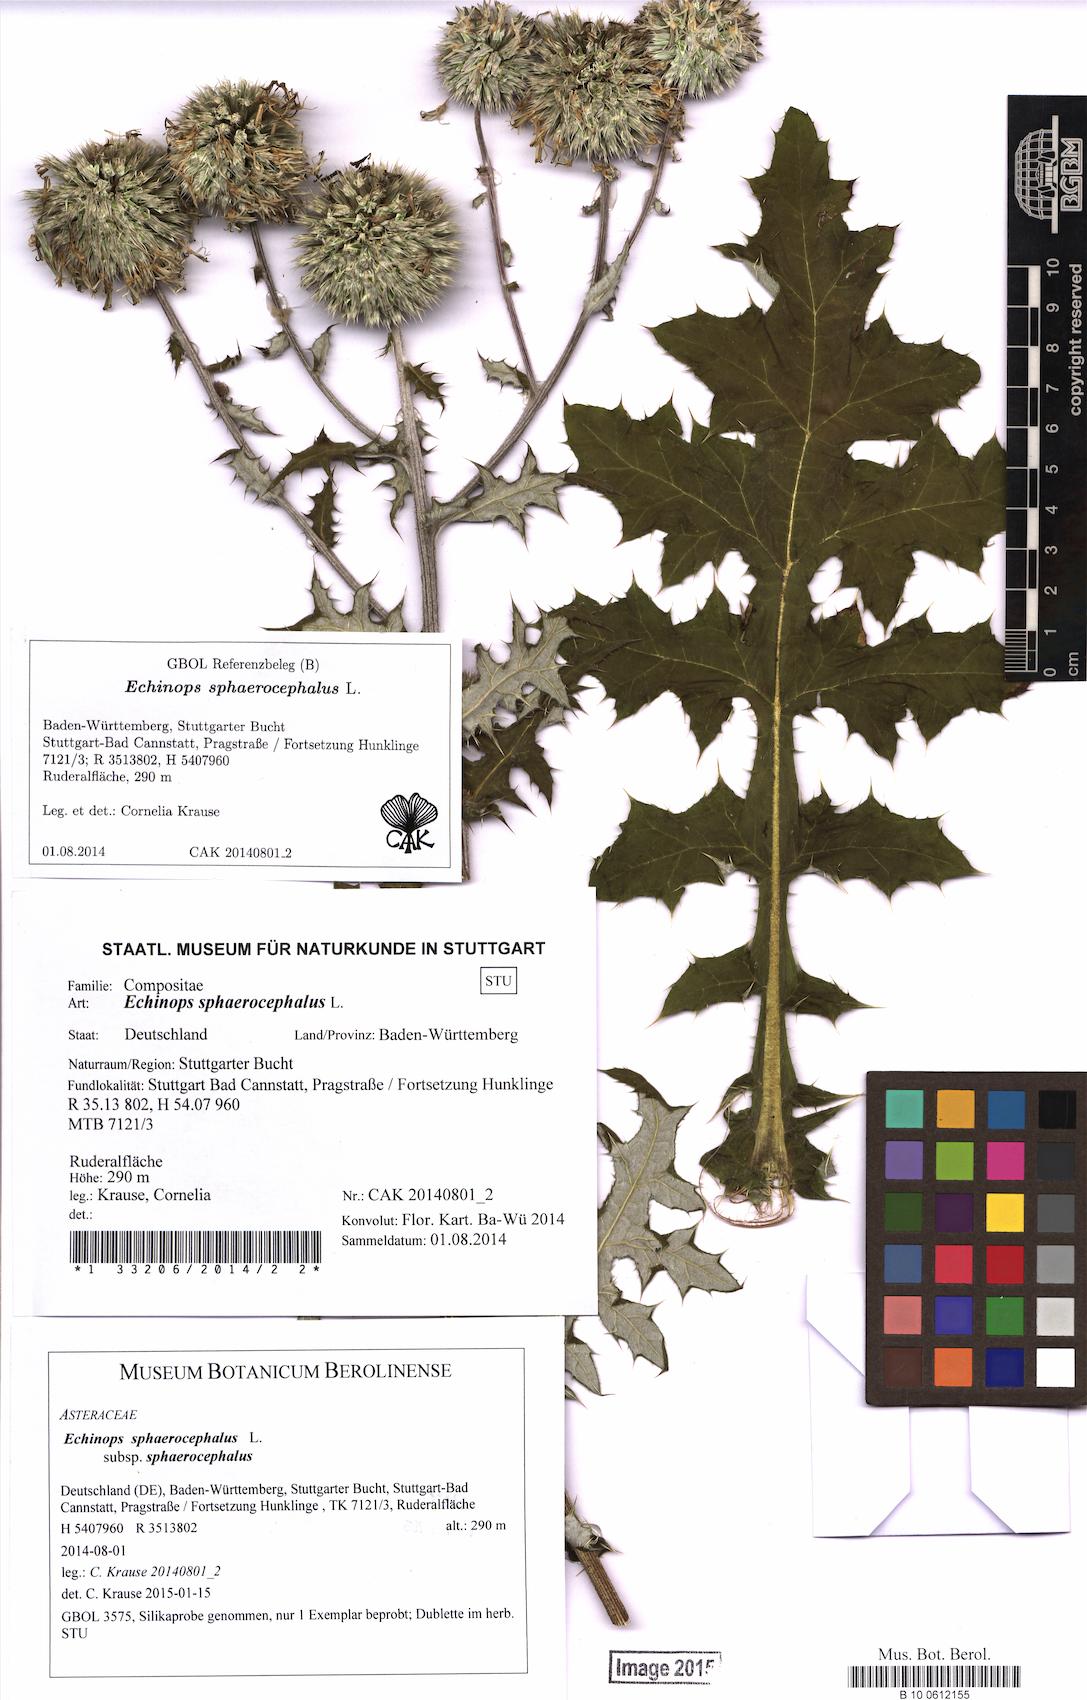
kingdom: Plantae
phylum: Tracheophyta
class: Magnoliopsida
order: Asterales
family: Asteraceae
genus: Echinops
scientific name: Echinops sphaerocephalus
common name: Glandular globe-thistle
